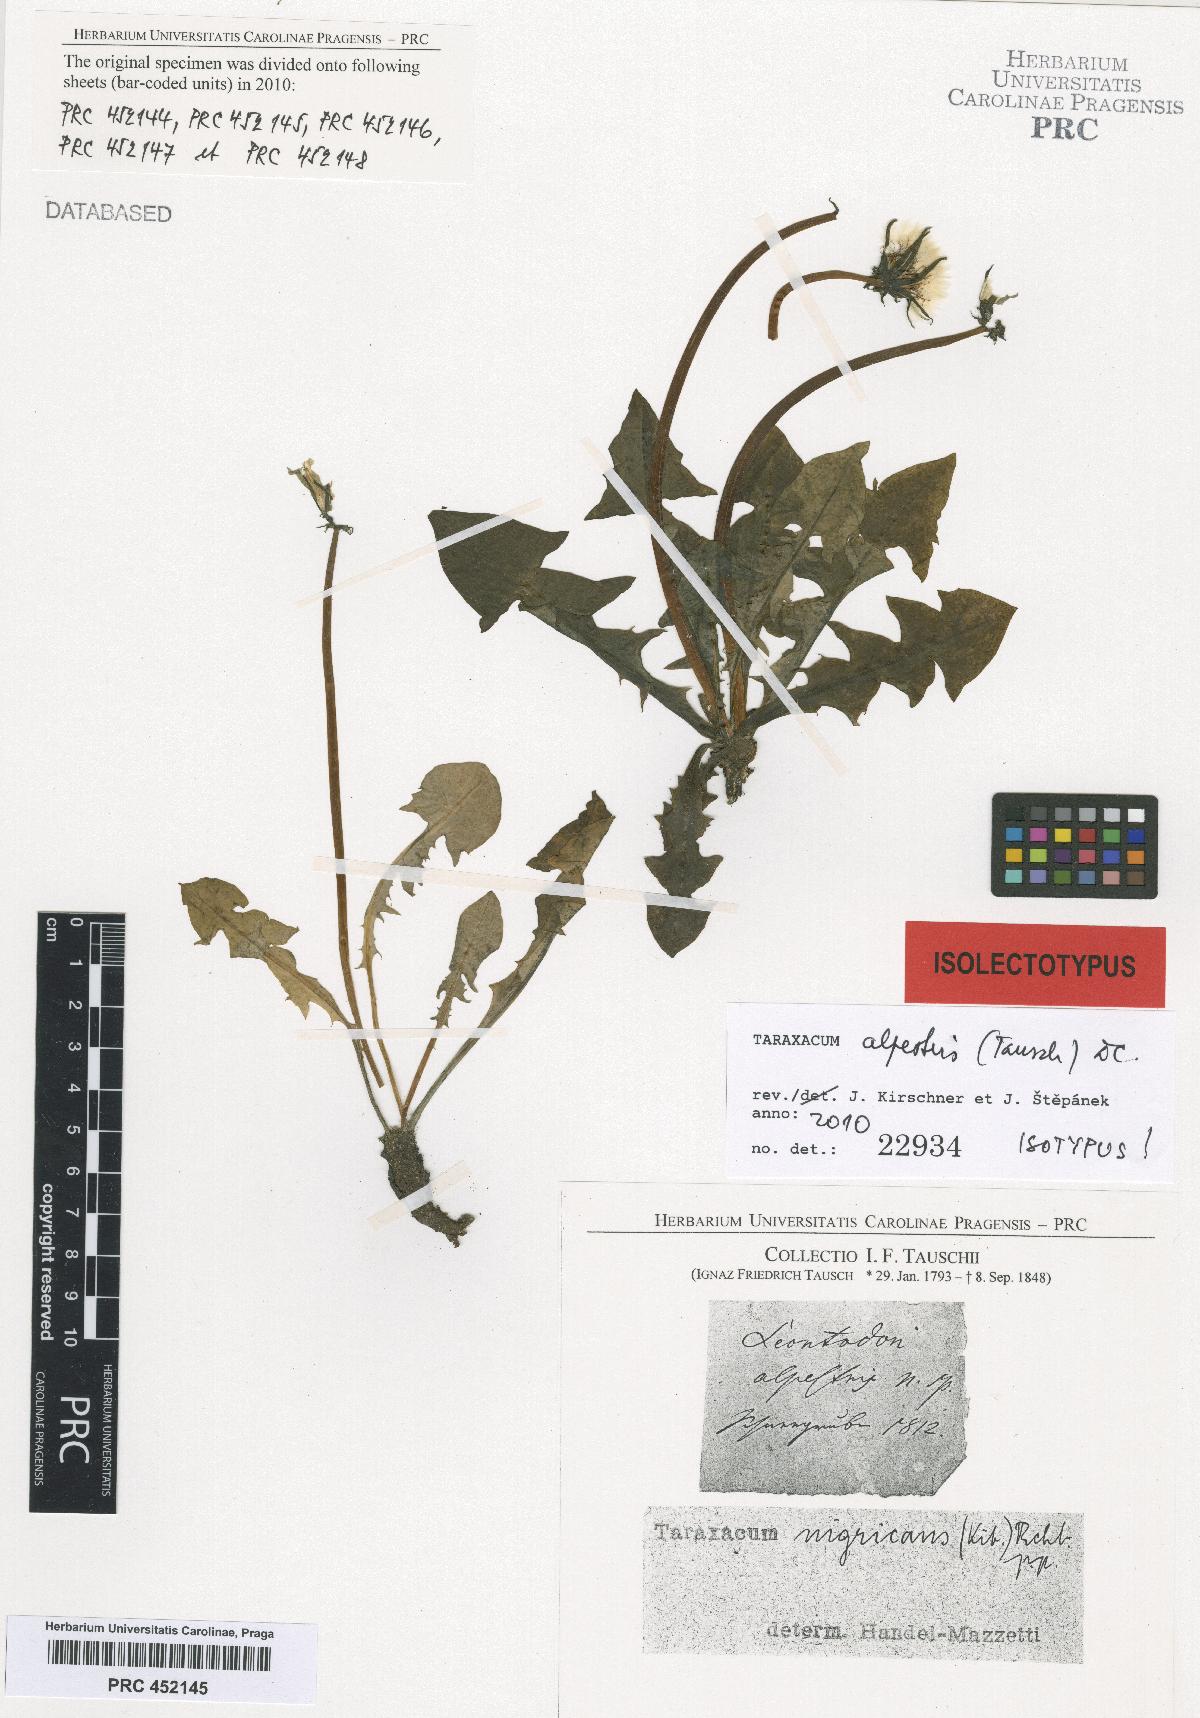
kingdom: Plantae
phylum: Tracheophyta
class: Magnoliopsida
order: Asterales
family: Asteraceae
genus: Taraxacum
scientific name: Taraxacum alpestre
